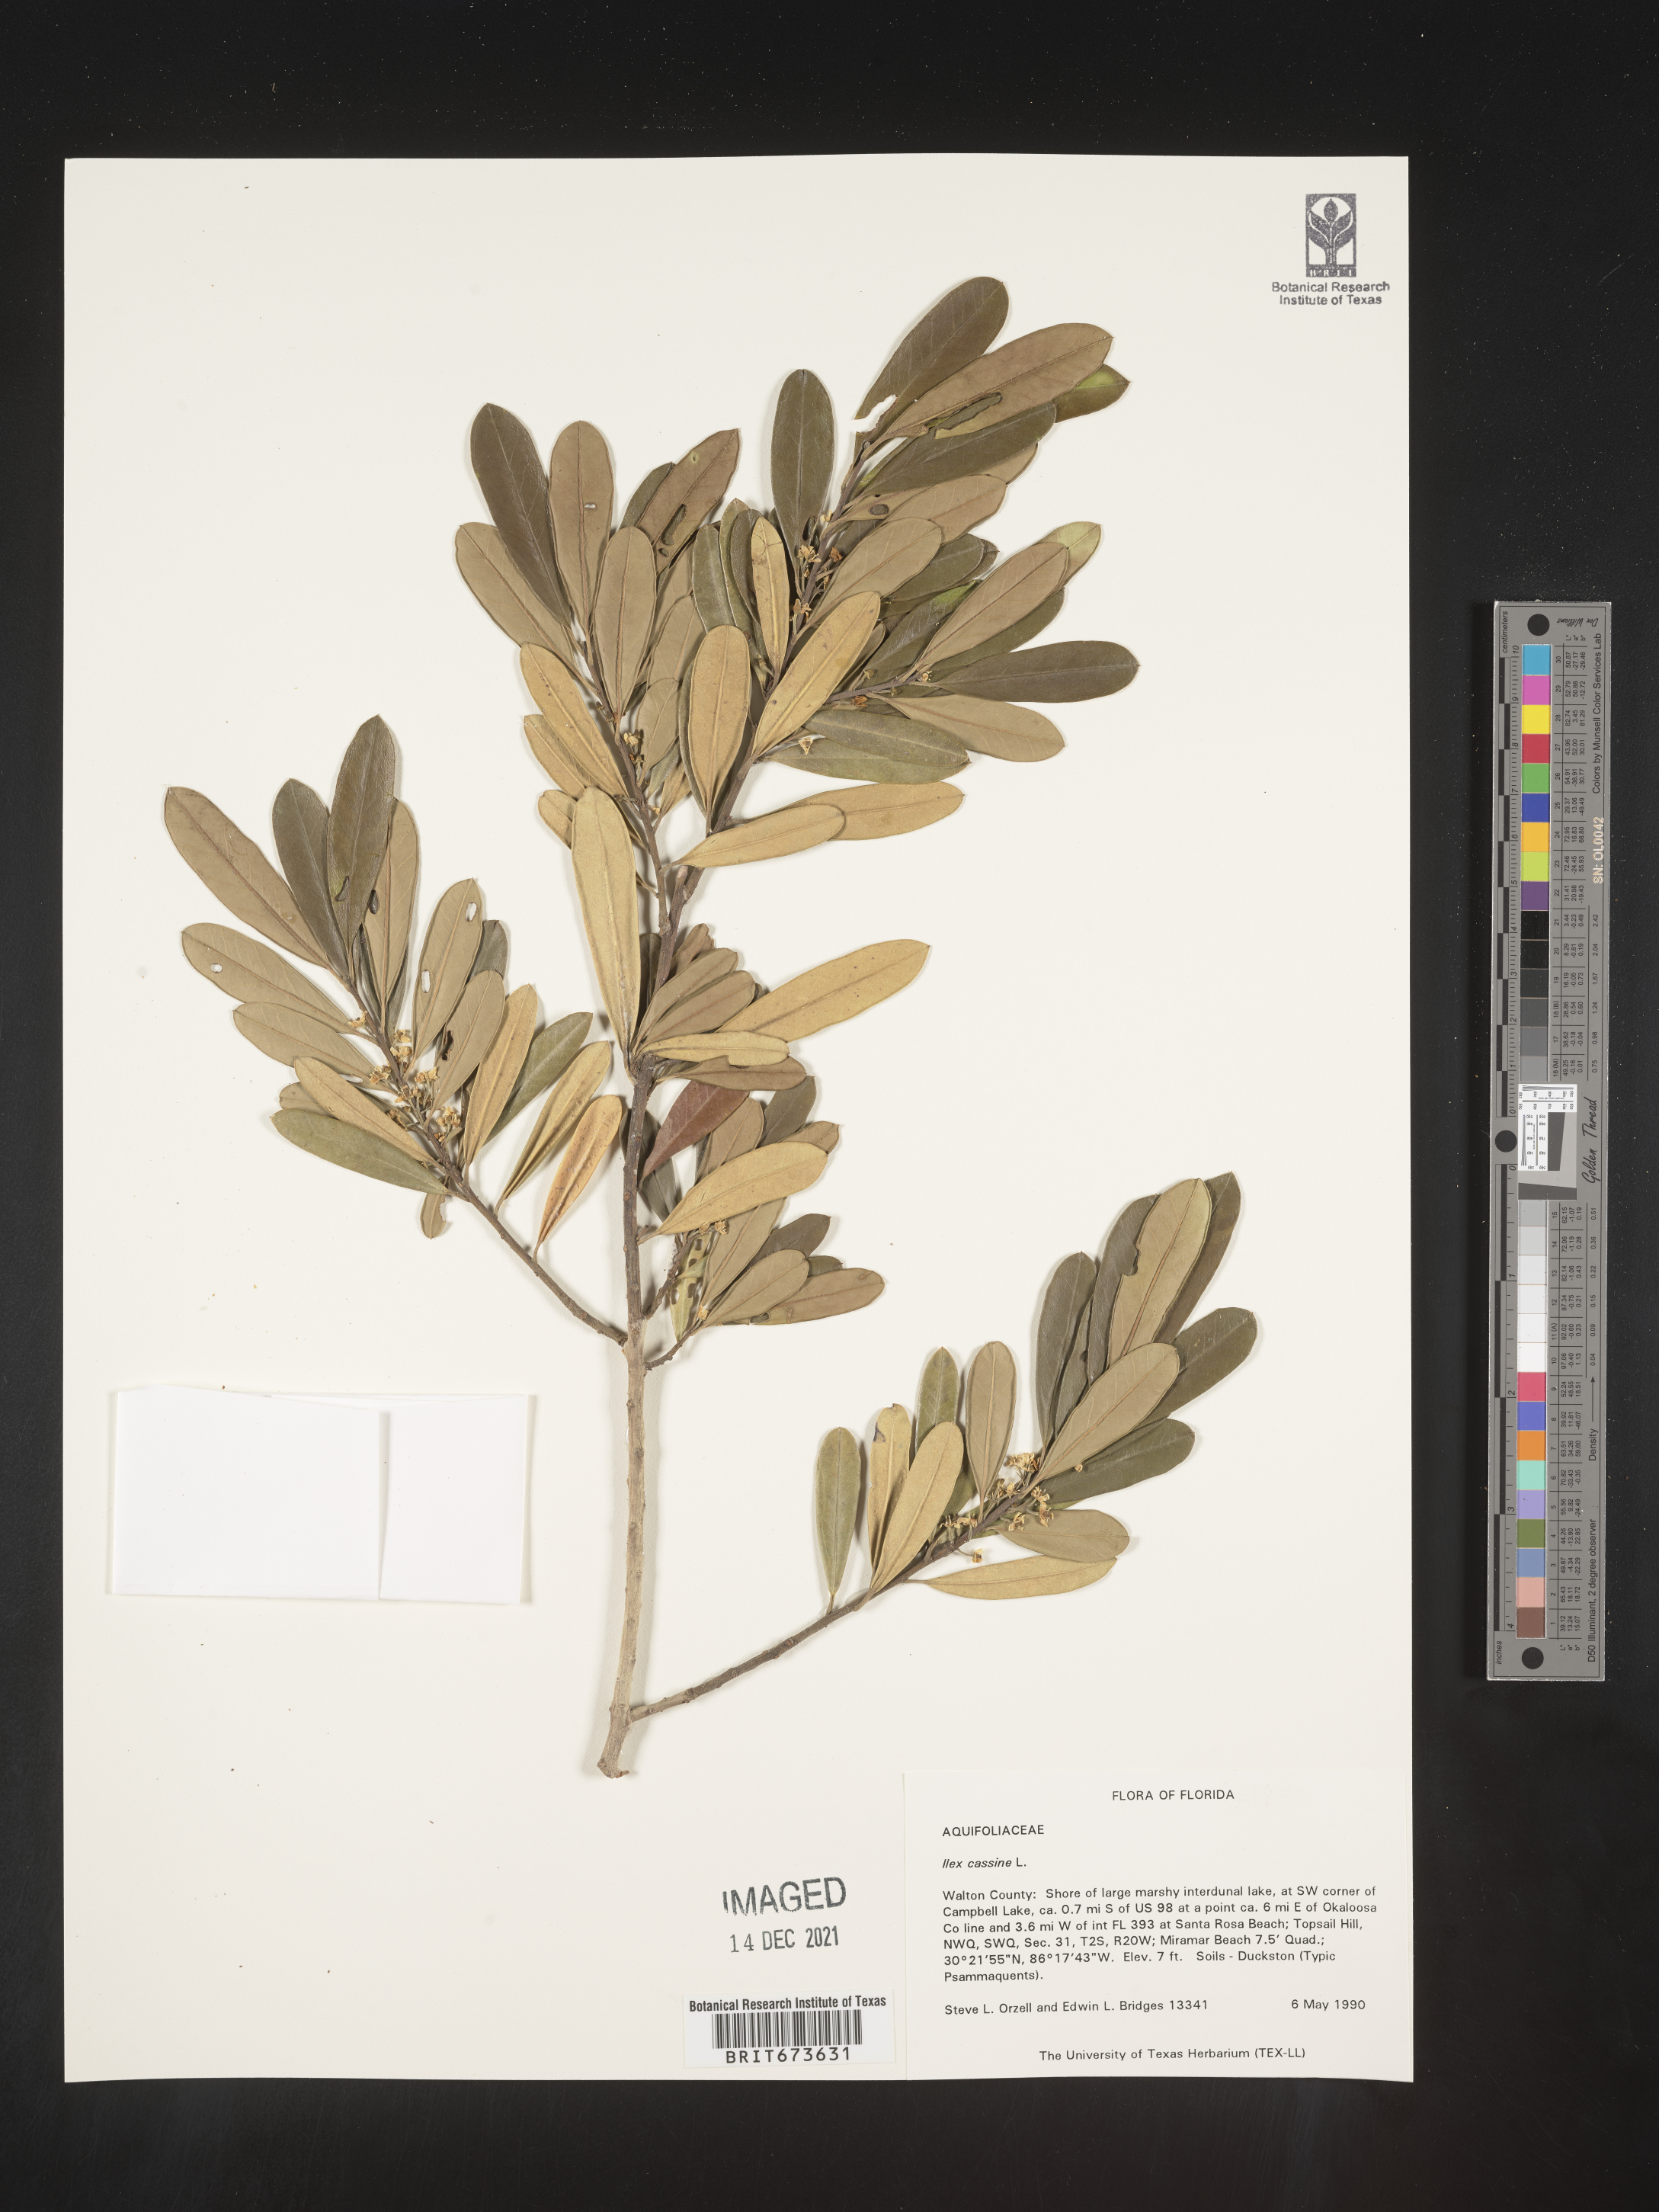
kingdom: Plantae
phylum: Tracheophyta
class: Magnoliopsida
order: Aquifoliales
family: Aquifoliaceae
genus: Ilex
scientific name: Ilex cassine
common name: Dahoon
